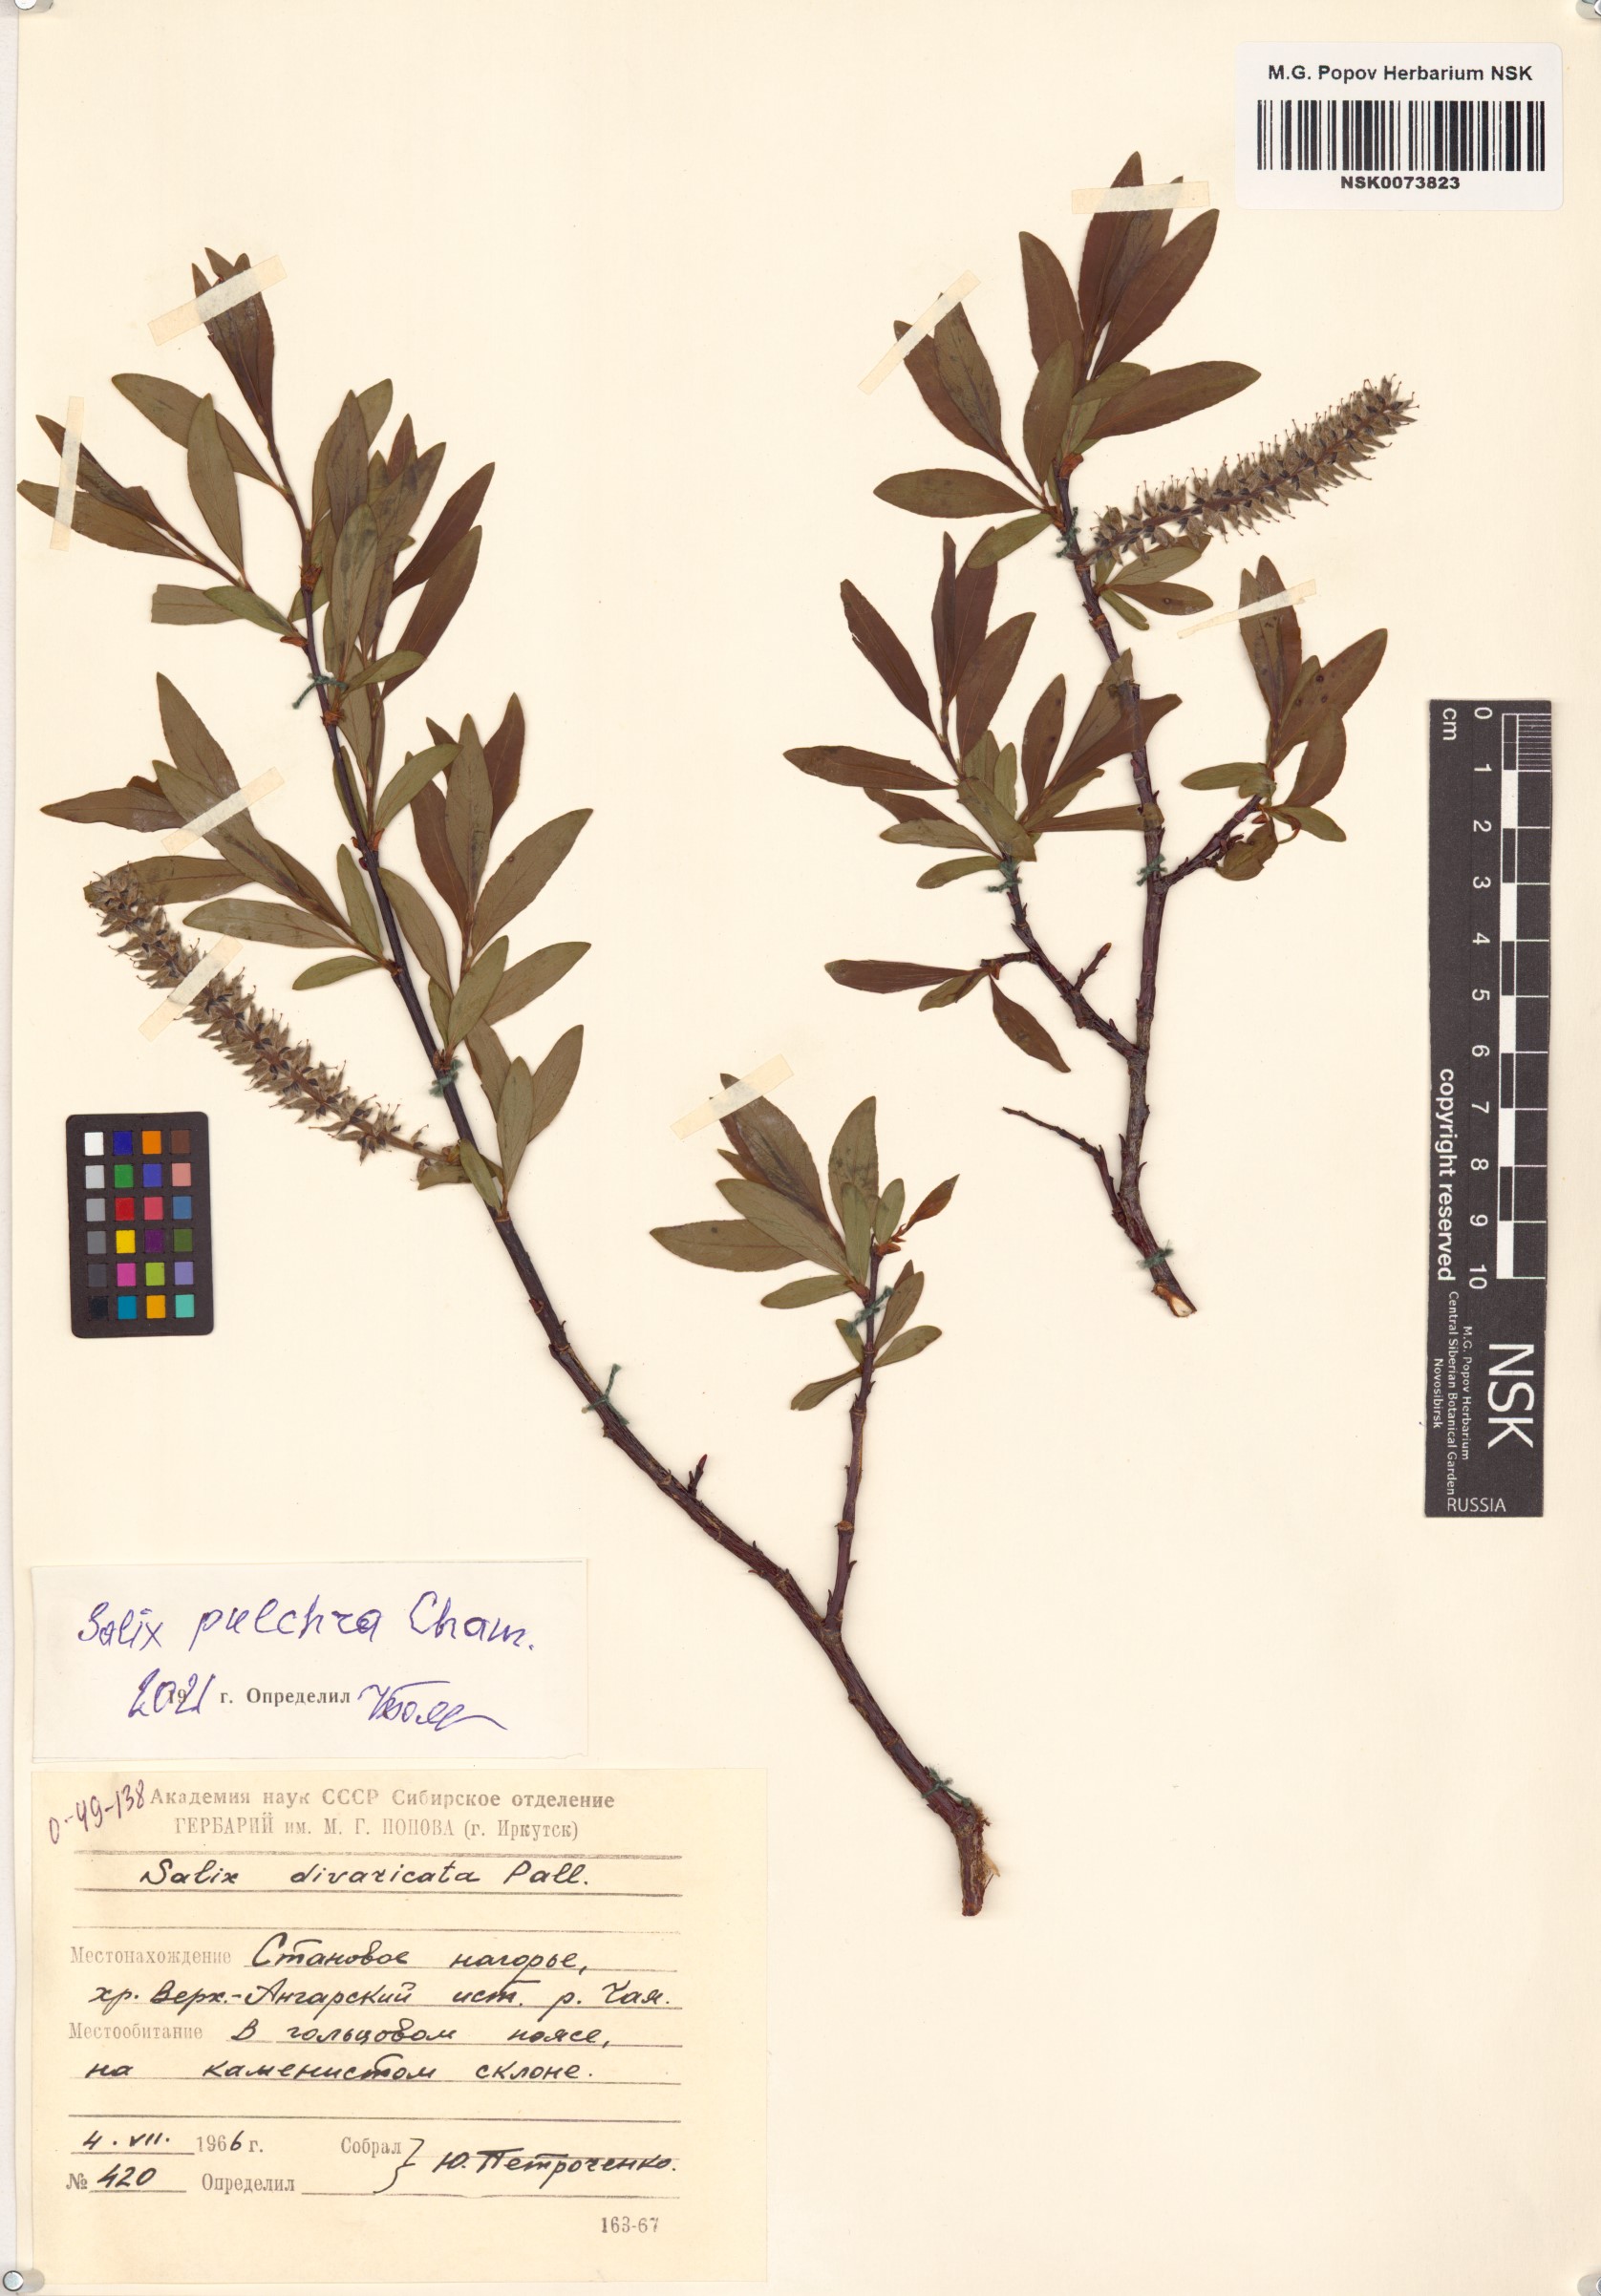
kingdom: Plantae
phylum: Tracheophyta
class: Magnoliopsida
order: Malpighiales
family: Salicaceae
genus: Salix
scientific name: Salix pulchra
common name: Diamond-leaved willow
